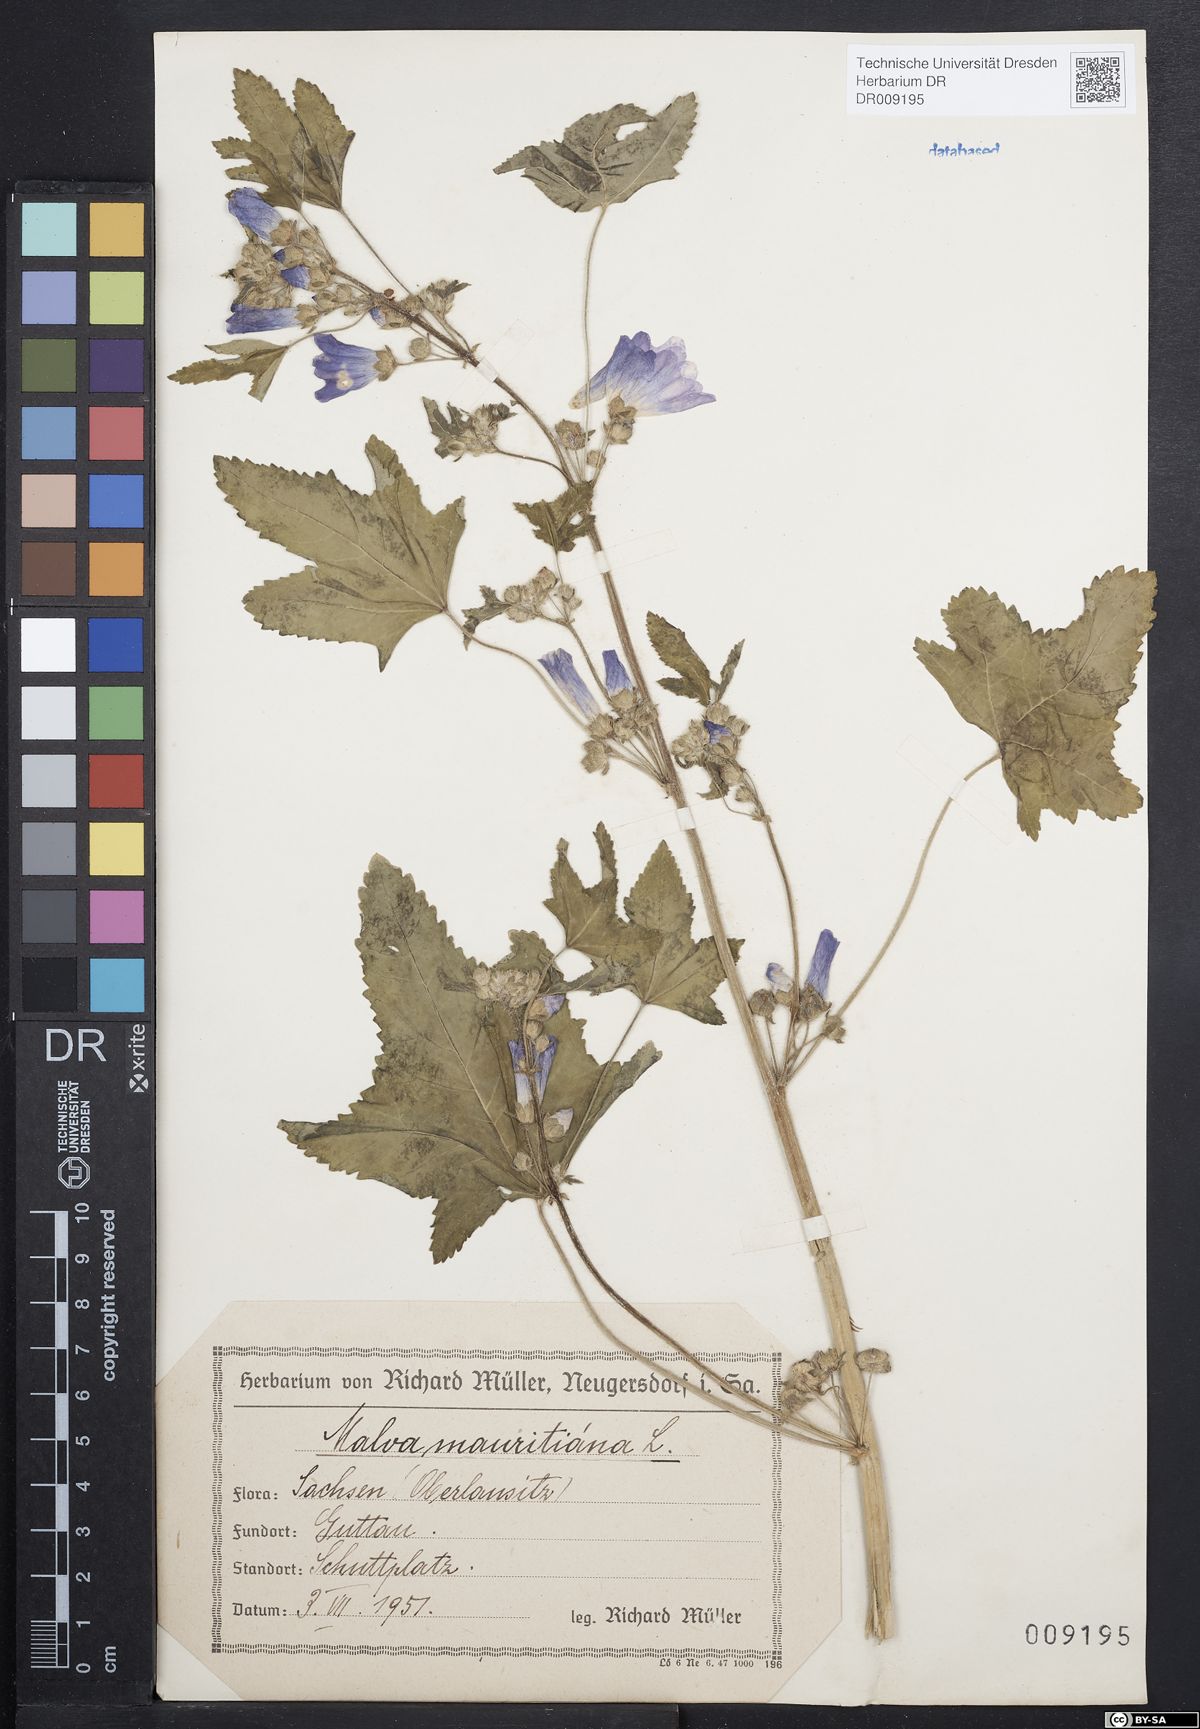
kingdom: Plantae
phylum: Tracheophyta
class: Magnoliopsida
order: Malvales
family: Malvaceae
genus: Malva
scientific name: Malva sylvestris
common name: Common mallow
